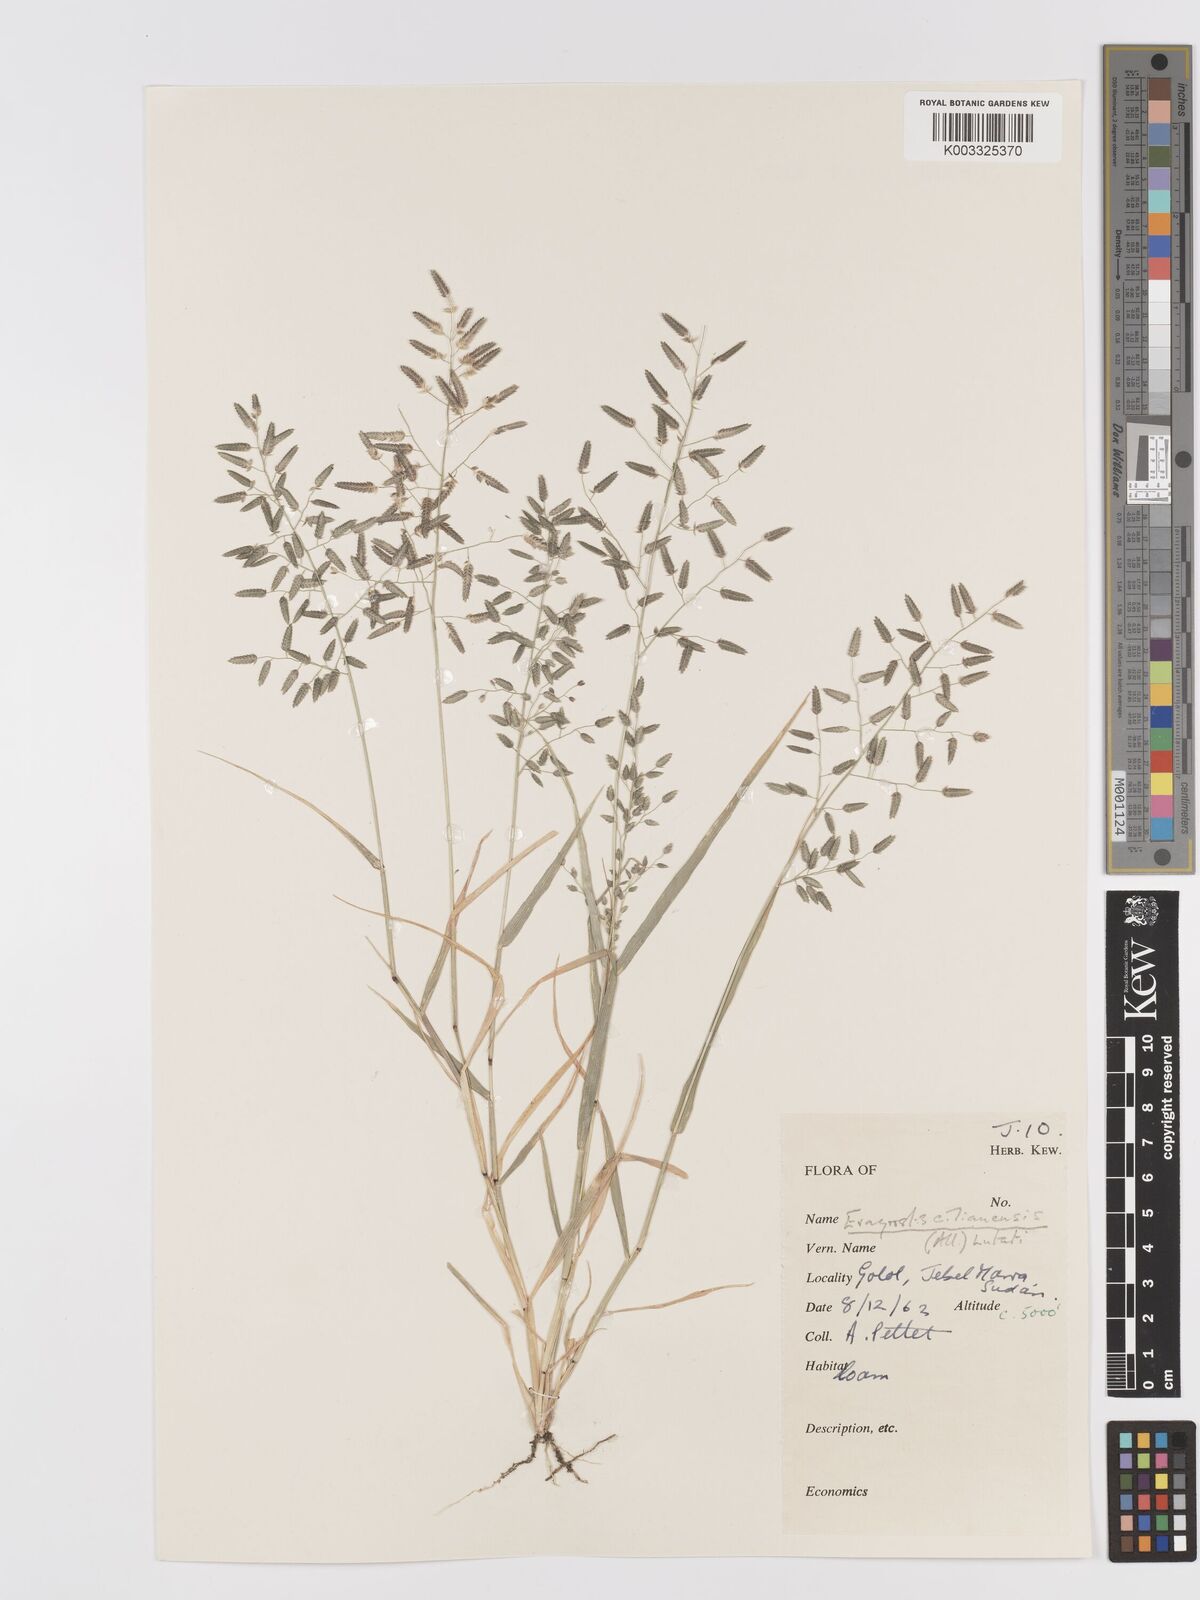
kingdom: Plantae
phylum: Tracheophyta
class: Liliopsida
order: Poales
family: Poaceae
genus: Eragrostis
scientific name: Eragrostis cilianensis
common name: Stinkgrass
